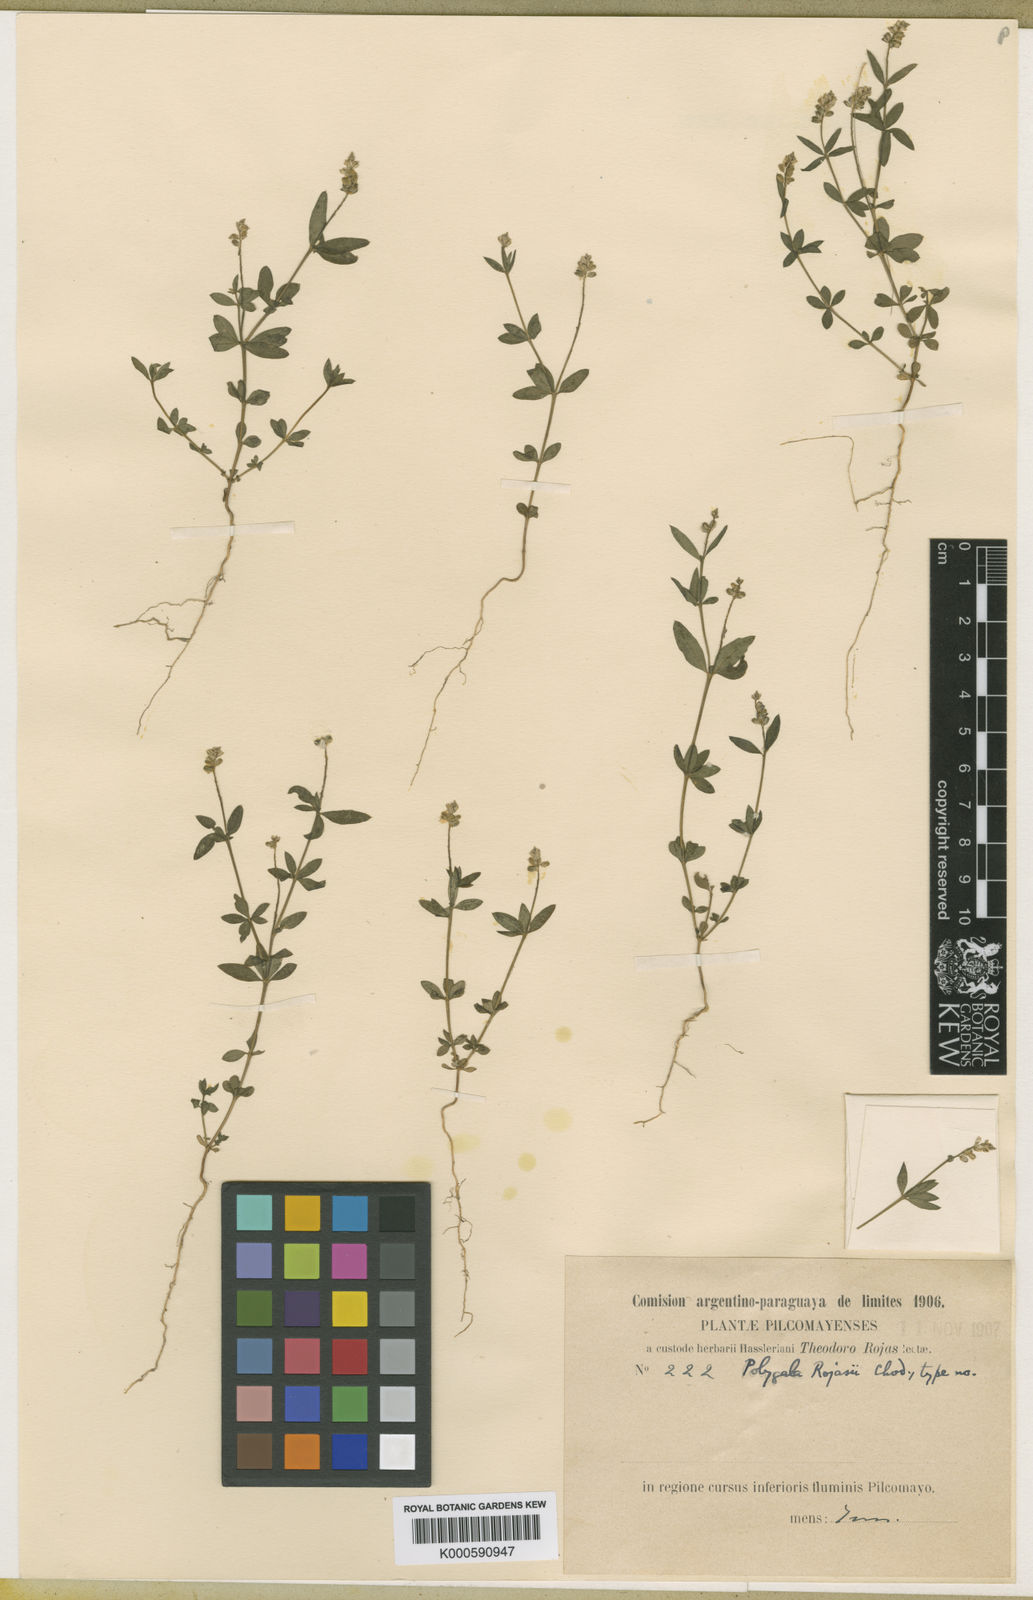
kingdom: Plantae
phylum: Tracheophyta
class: Magnoliopsida
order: Fabales
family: Polygalaceae
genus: Polygala
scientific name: Polygala rojasii
